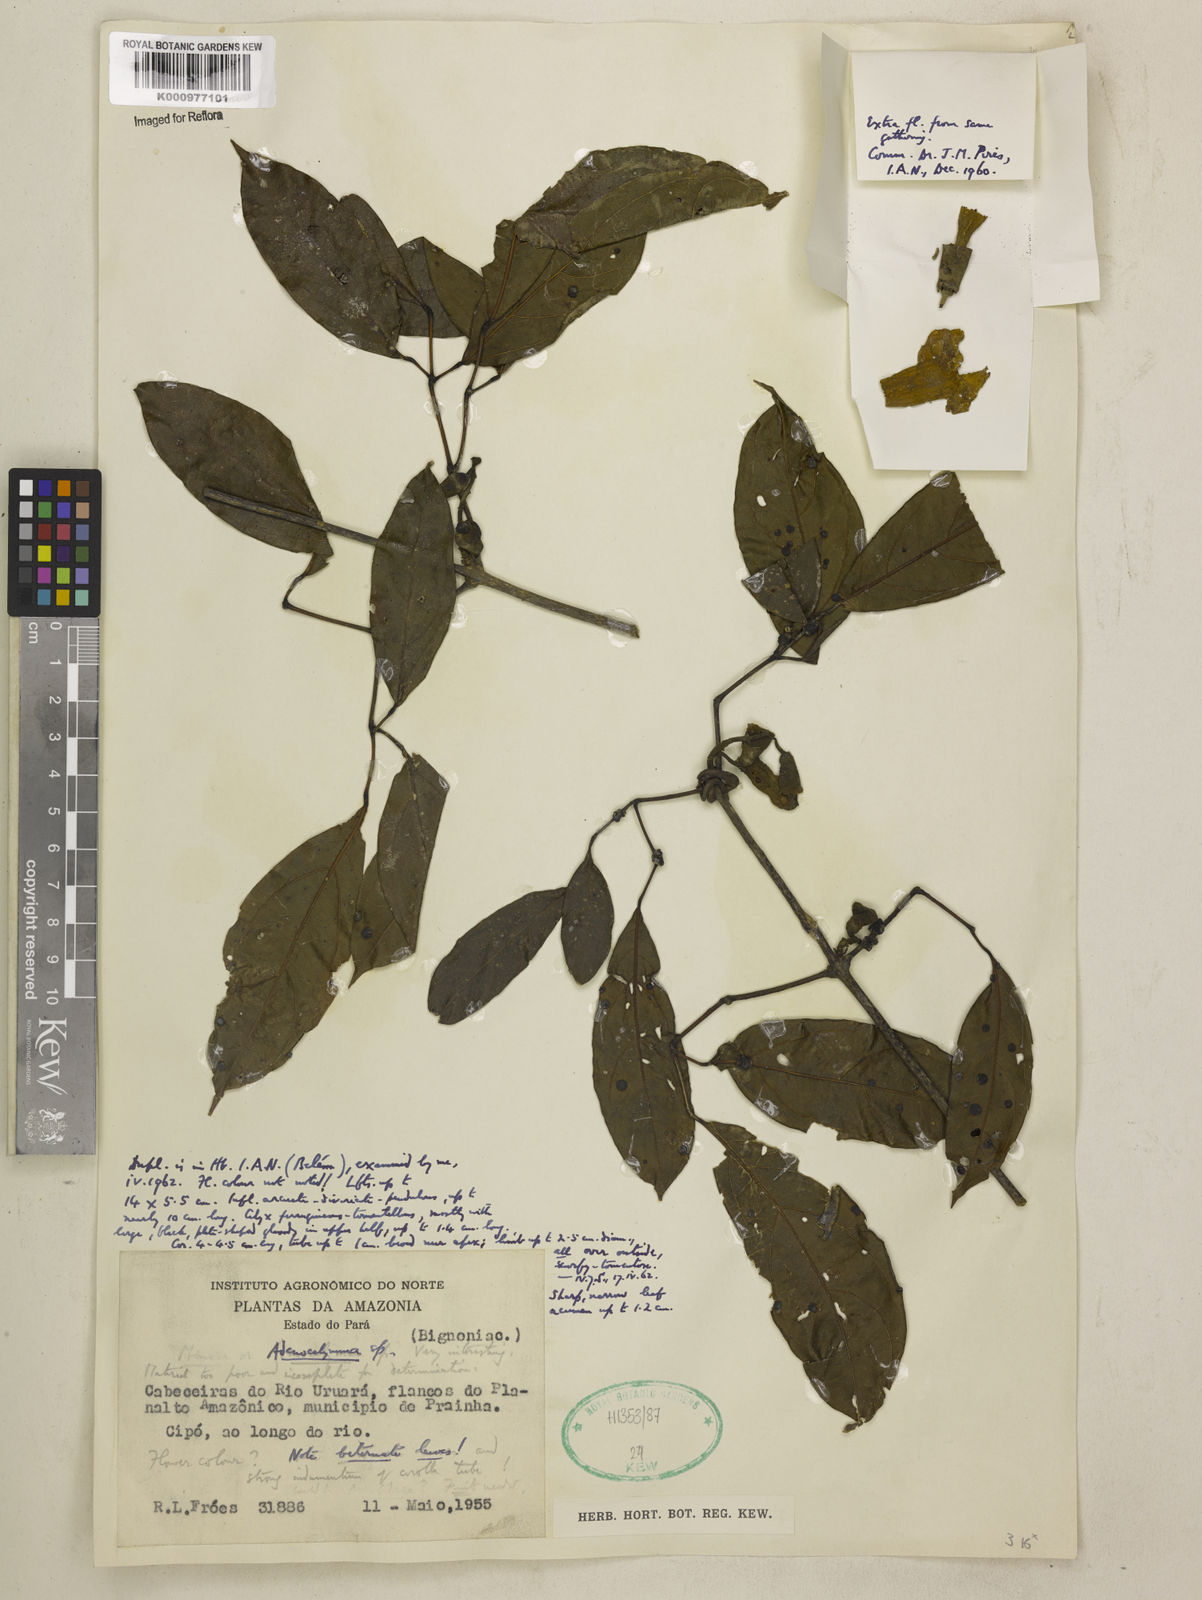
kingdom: Plantae
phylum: Tracheophyta
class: Magnoliopsida
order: Lamiales
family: Bignoniaceae
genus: Adenocalymma
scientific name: Adenocalymma
